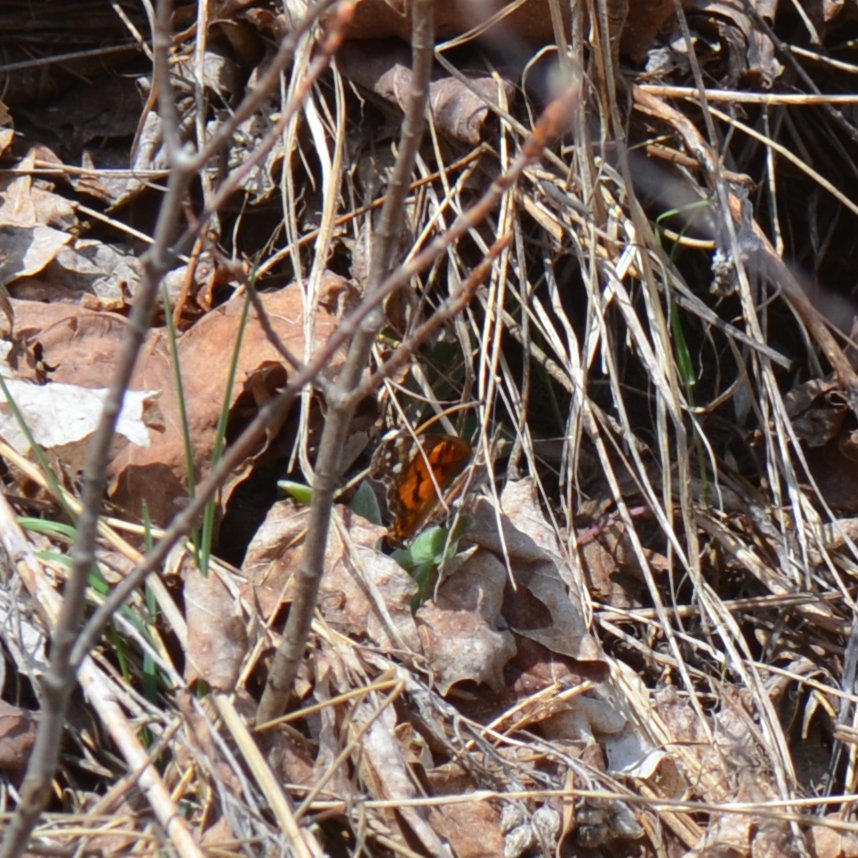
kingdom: Animalia
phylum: Arthropoda
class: Insecta
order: Lepidoptera
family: Nymphalidae
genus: Vanessa
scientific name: Vanessa virginiensis
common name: American Lady
